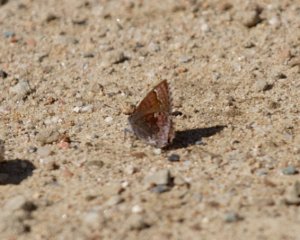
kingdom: Animalia
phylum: Arthropoda
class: Insecta
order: Lepidoptera
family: Lycaenidae
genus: Callophrys
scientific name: Callophrys polios
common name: Hoary Elfin
